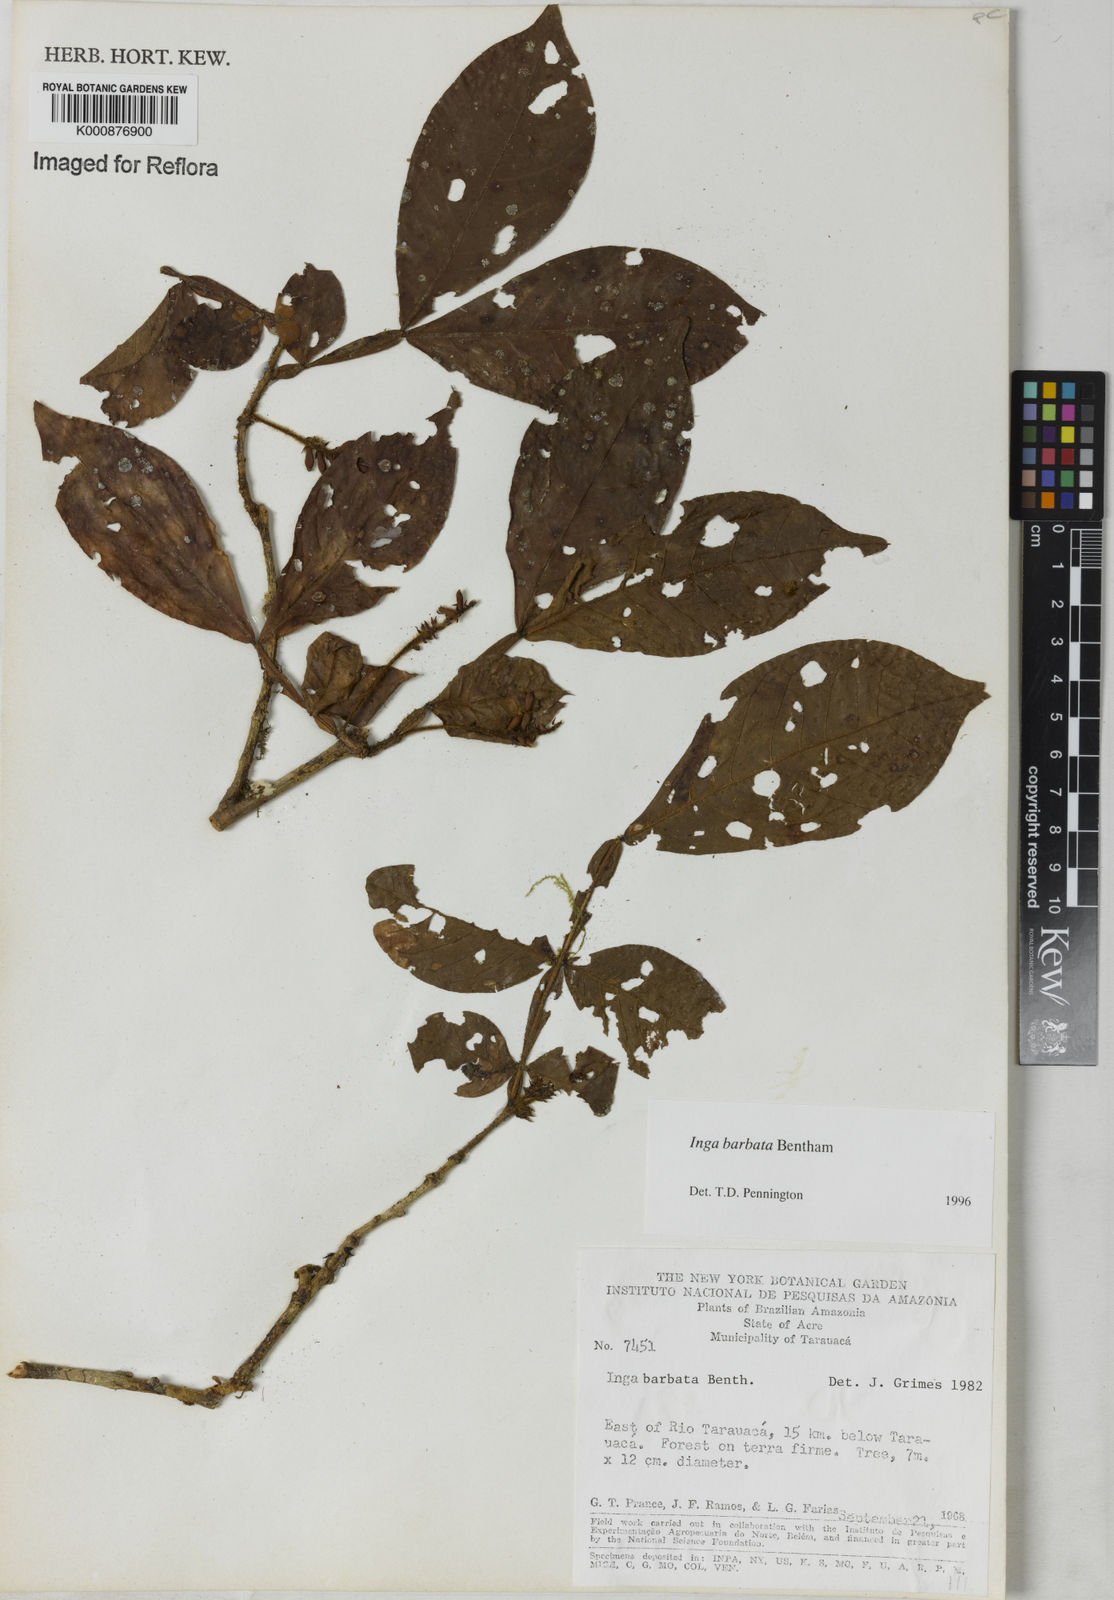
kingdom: Plantae
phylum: Tracheophyta
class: Magnoliopsida
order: Fabales
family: Fabaceae
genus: Inga
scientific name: Inga barbata
